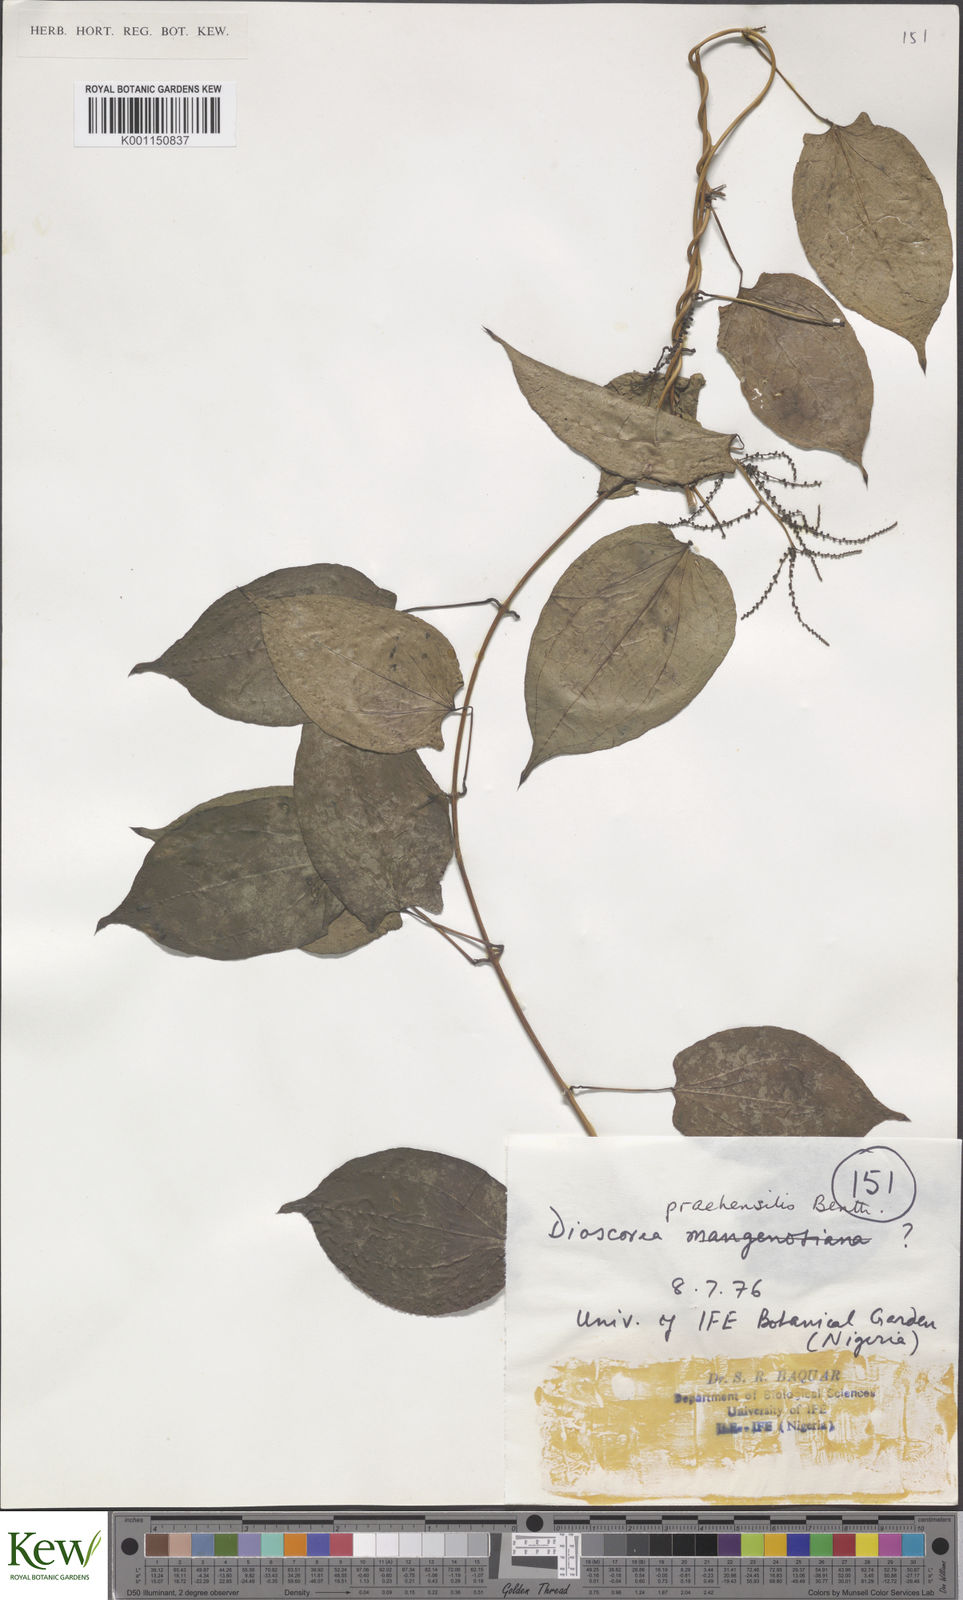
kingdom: Plantae
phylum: Tracheophyta
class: Liliopsida
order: Dioscoreales
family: Dioscoreaceae
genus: Dioscorea
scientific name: Dioscorea praehensilis
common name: Bush yam
